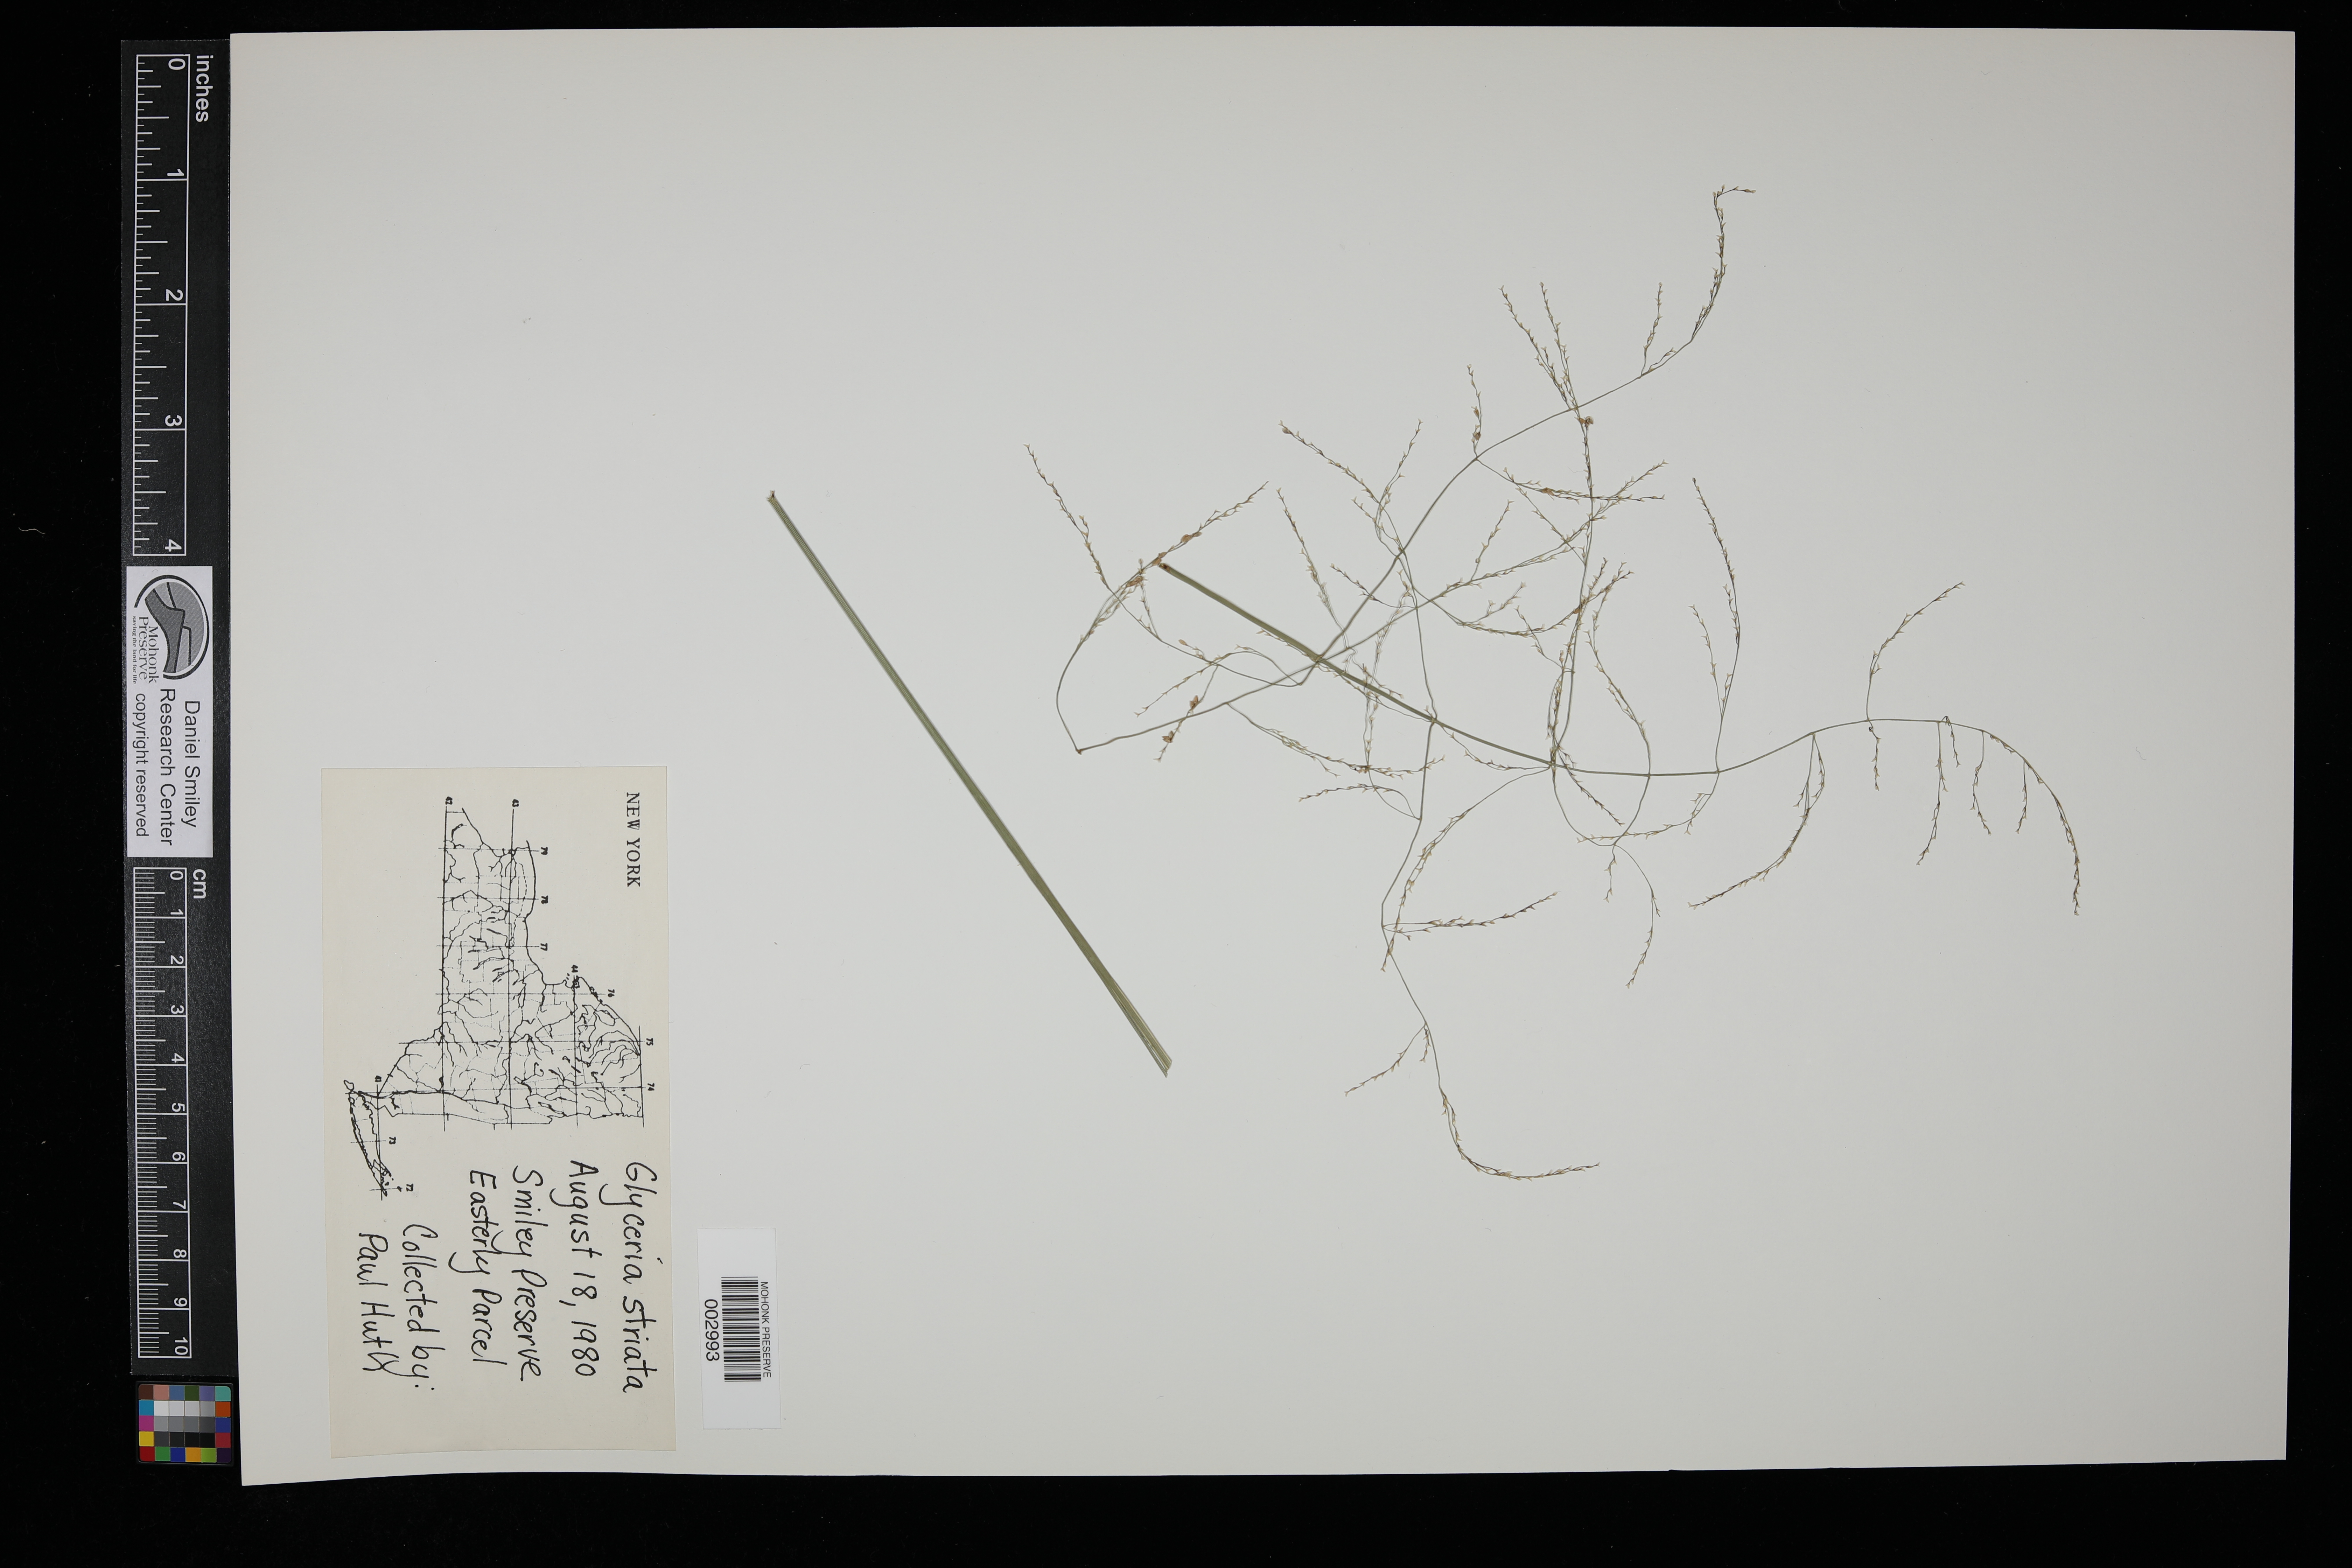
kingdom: Plantae
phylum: Tracheophyta
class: Liliopsida
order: Poales
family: Poaceae
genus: Glyceria
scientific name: Glyceria striata
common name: Fowl manna grass
